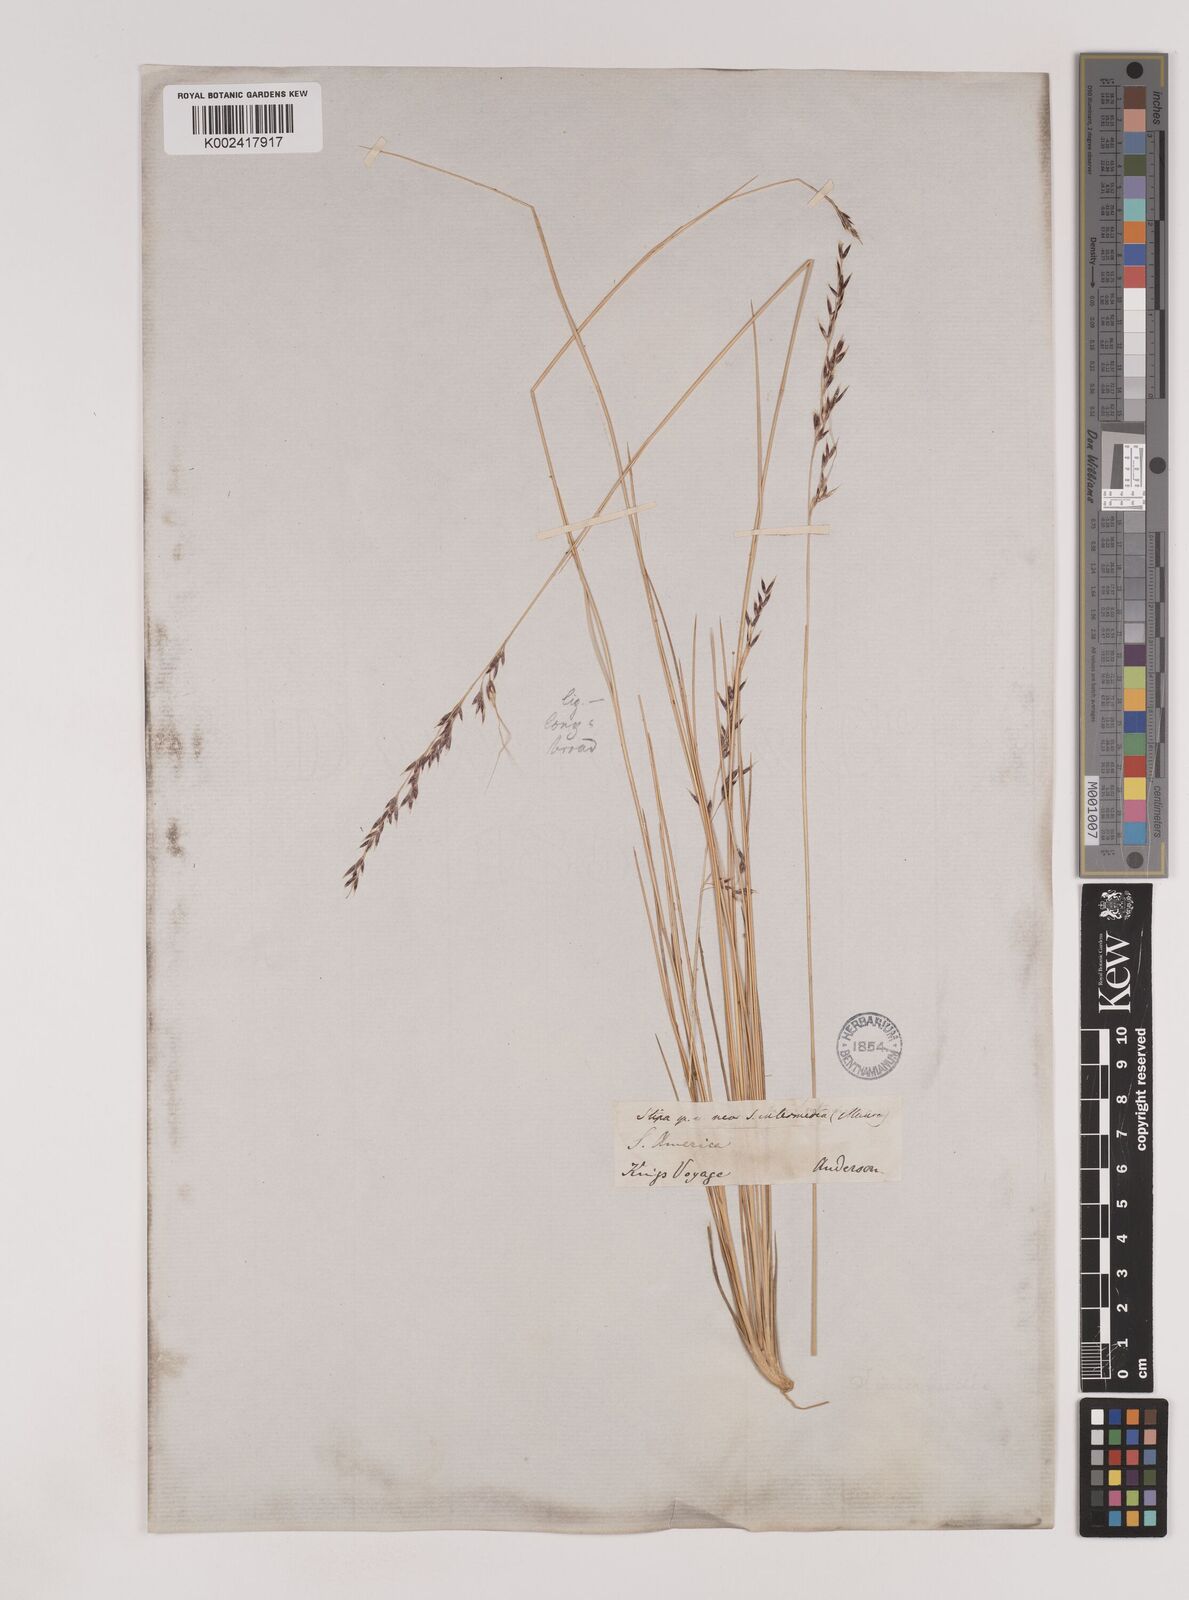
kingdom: Plantae
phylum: Tracheophyta
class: Liliopsida
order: Poales
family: Poaceae
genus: Nassella
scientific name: Nassella pampeana
